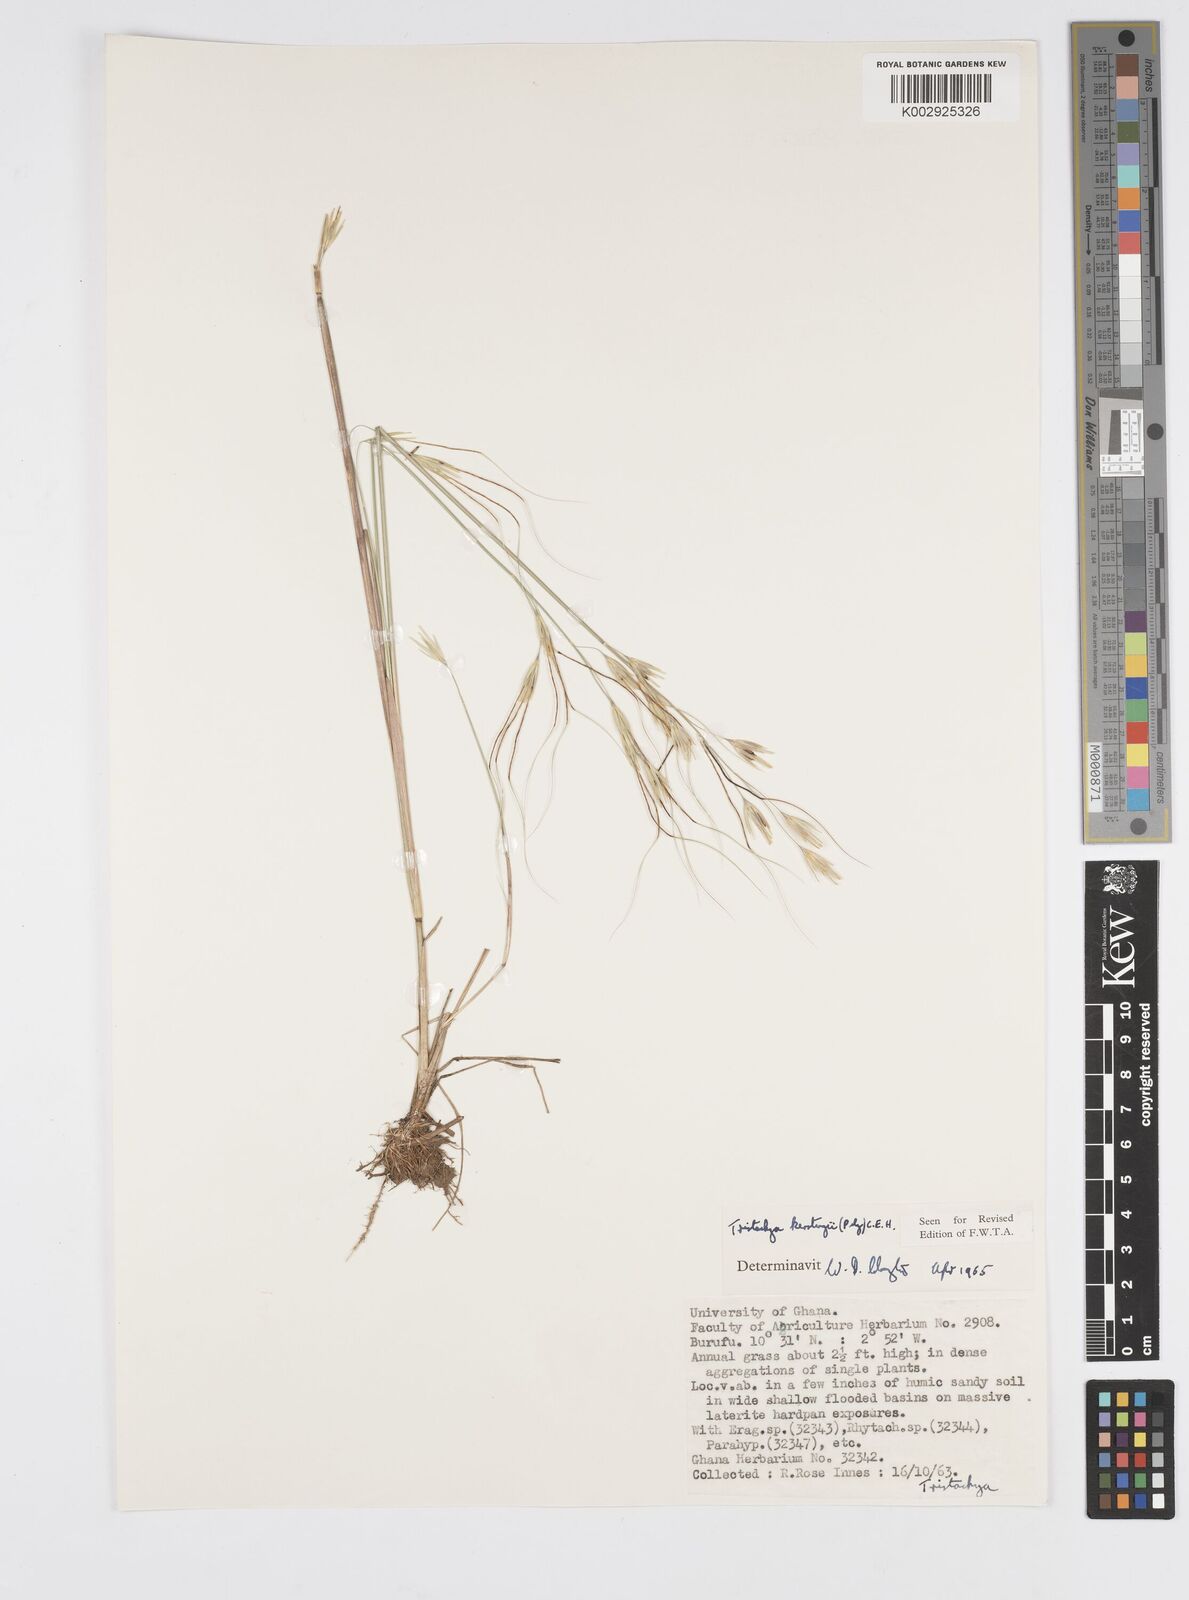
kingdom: Plantae
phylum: Tracheophyta
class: Liliopsida
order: Poales
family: Poaceae
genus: Loudetiopsis
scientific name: Loudetiopsis kerstingii
